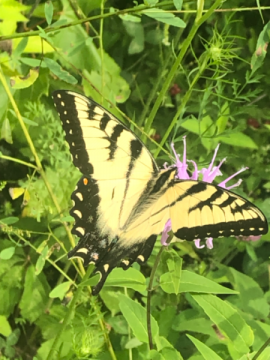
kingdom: Animalia
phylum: Arthropoda
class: Insecta
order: Lepidoptera
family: Papilionidae
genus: Papilio
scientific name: Papilio
